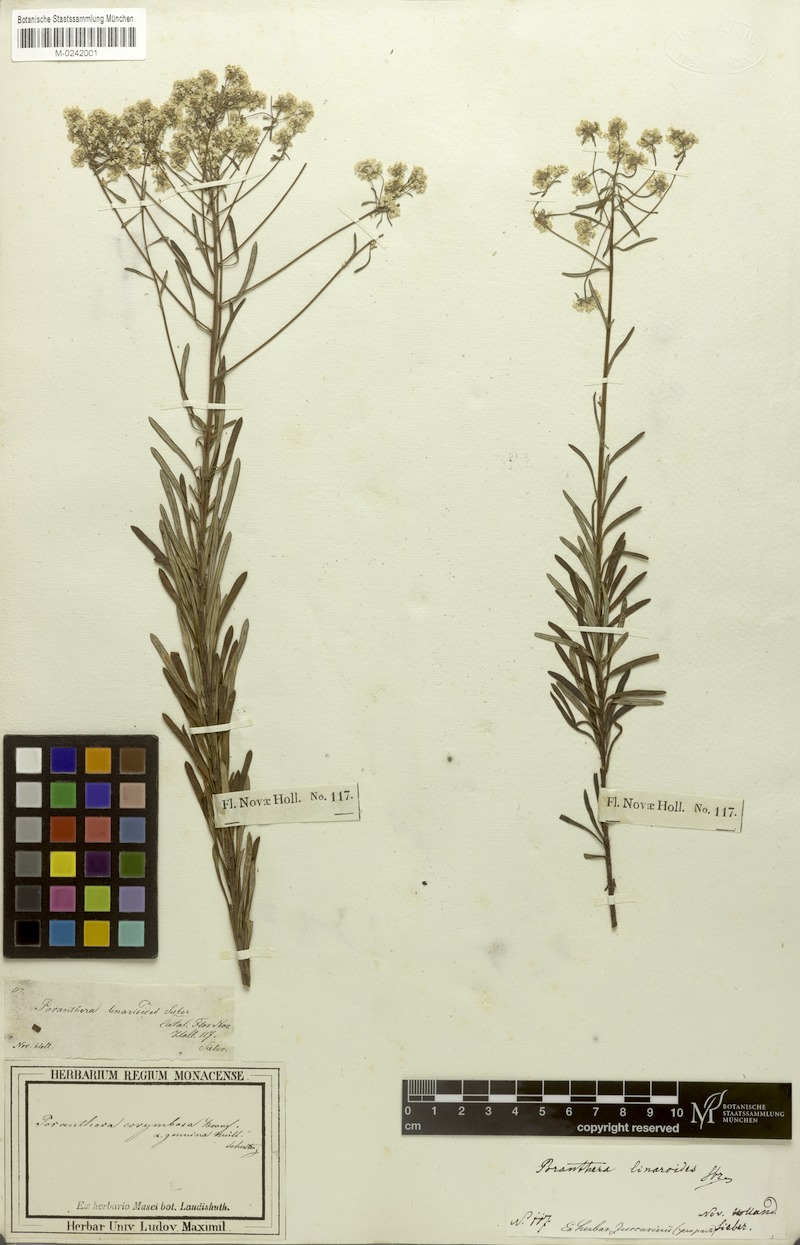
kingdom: Plantae
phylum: Tracheophyta
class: Magnoliopsida
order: Malpighiales
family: Phyllanthaceae
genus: Poranthera
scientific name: Poranthera corymbosa
